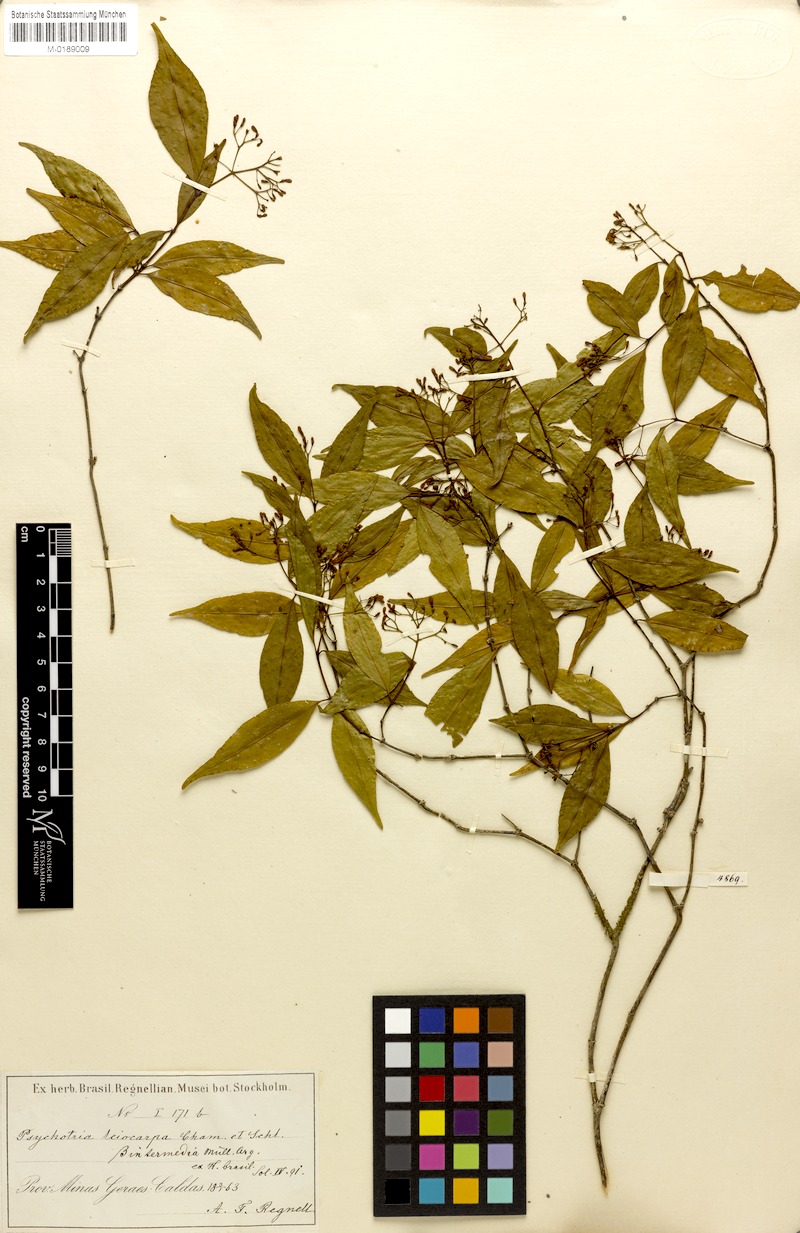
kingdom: Plantae
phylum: Tracheophyta
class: Magnoliopsida
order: Gentianales
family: Rubiaceae
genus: Psychotria
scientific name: Psychotria leiocarpa
